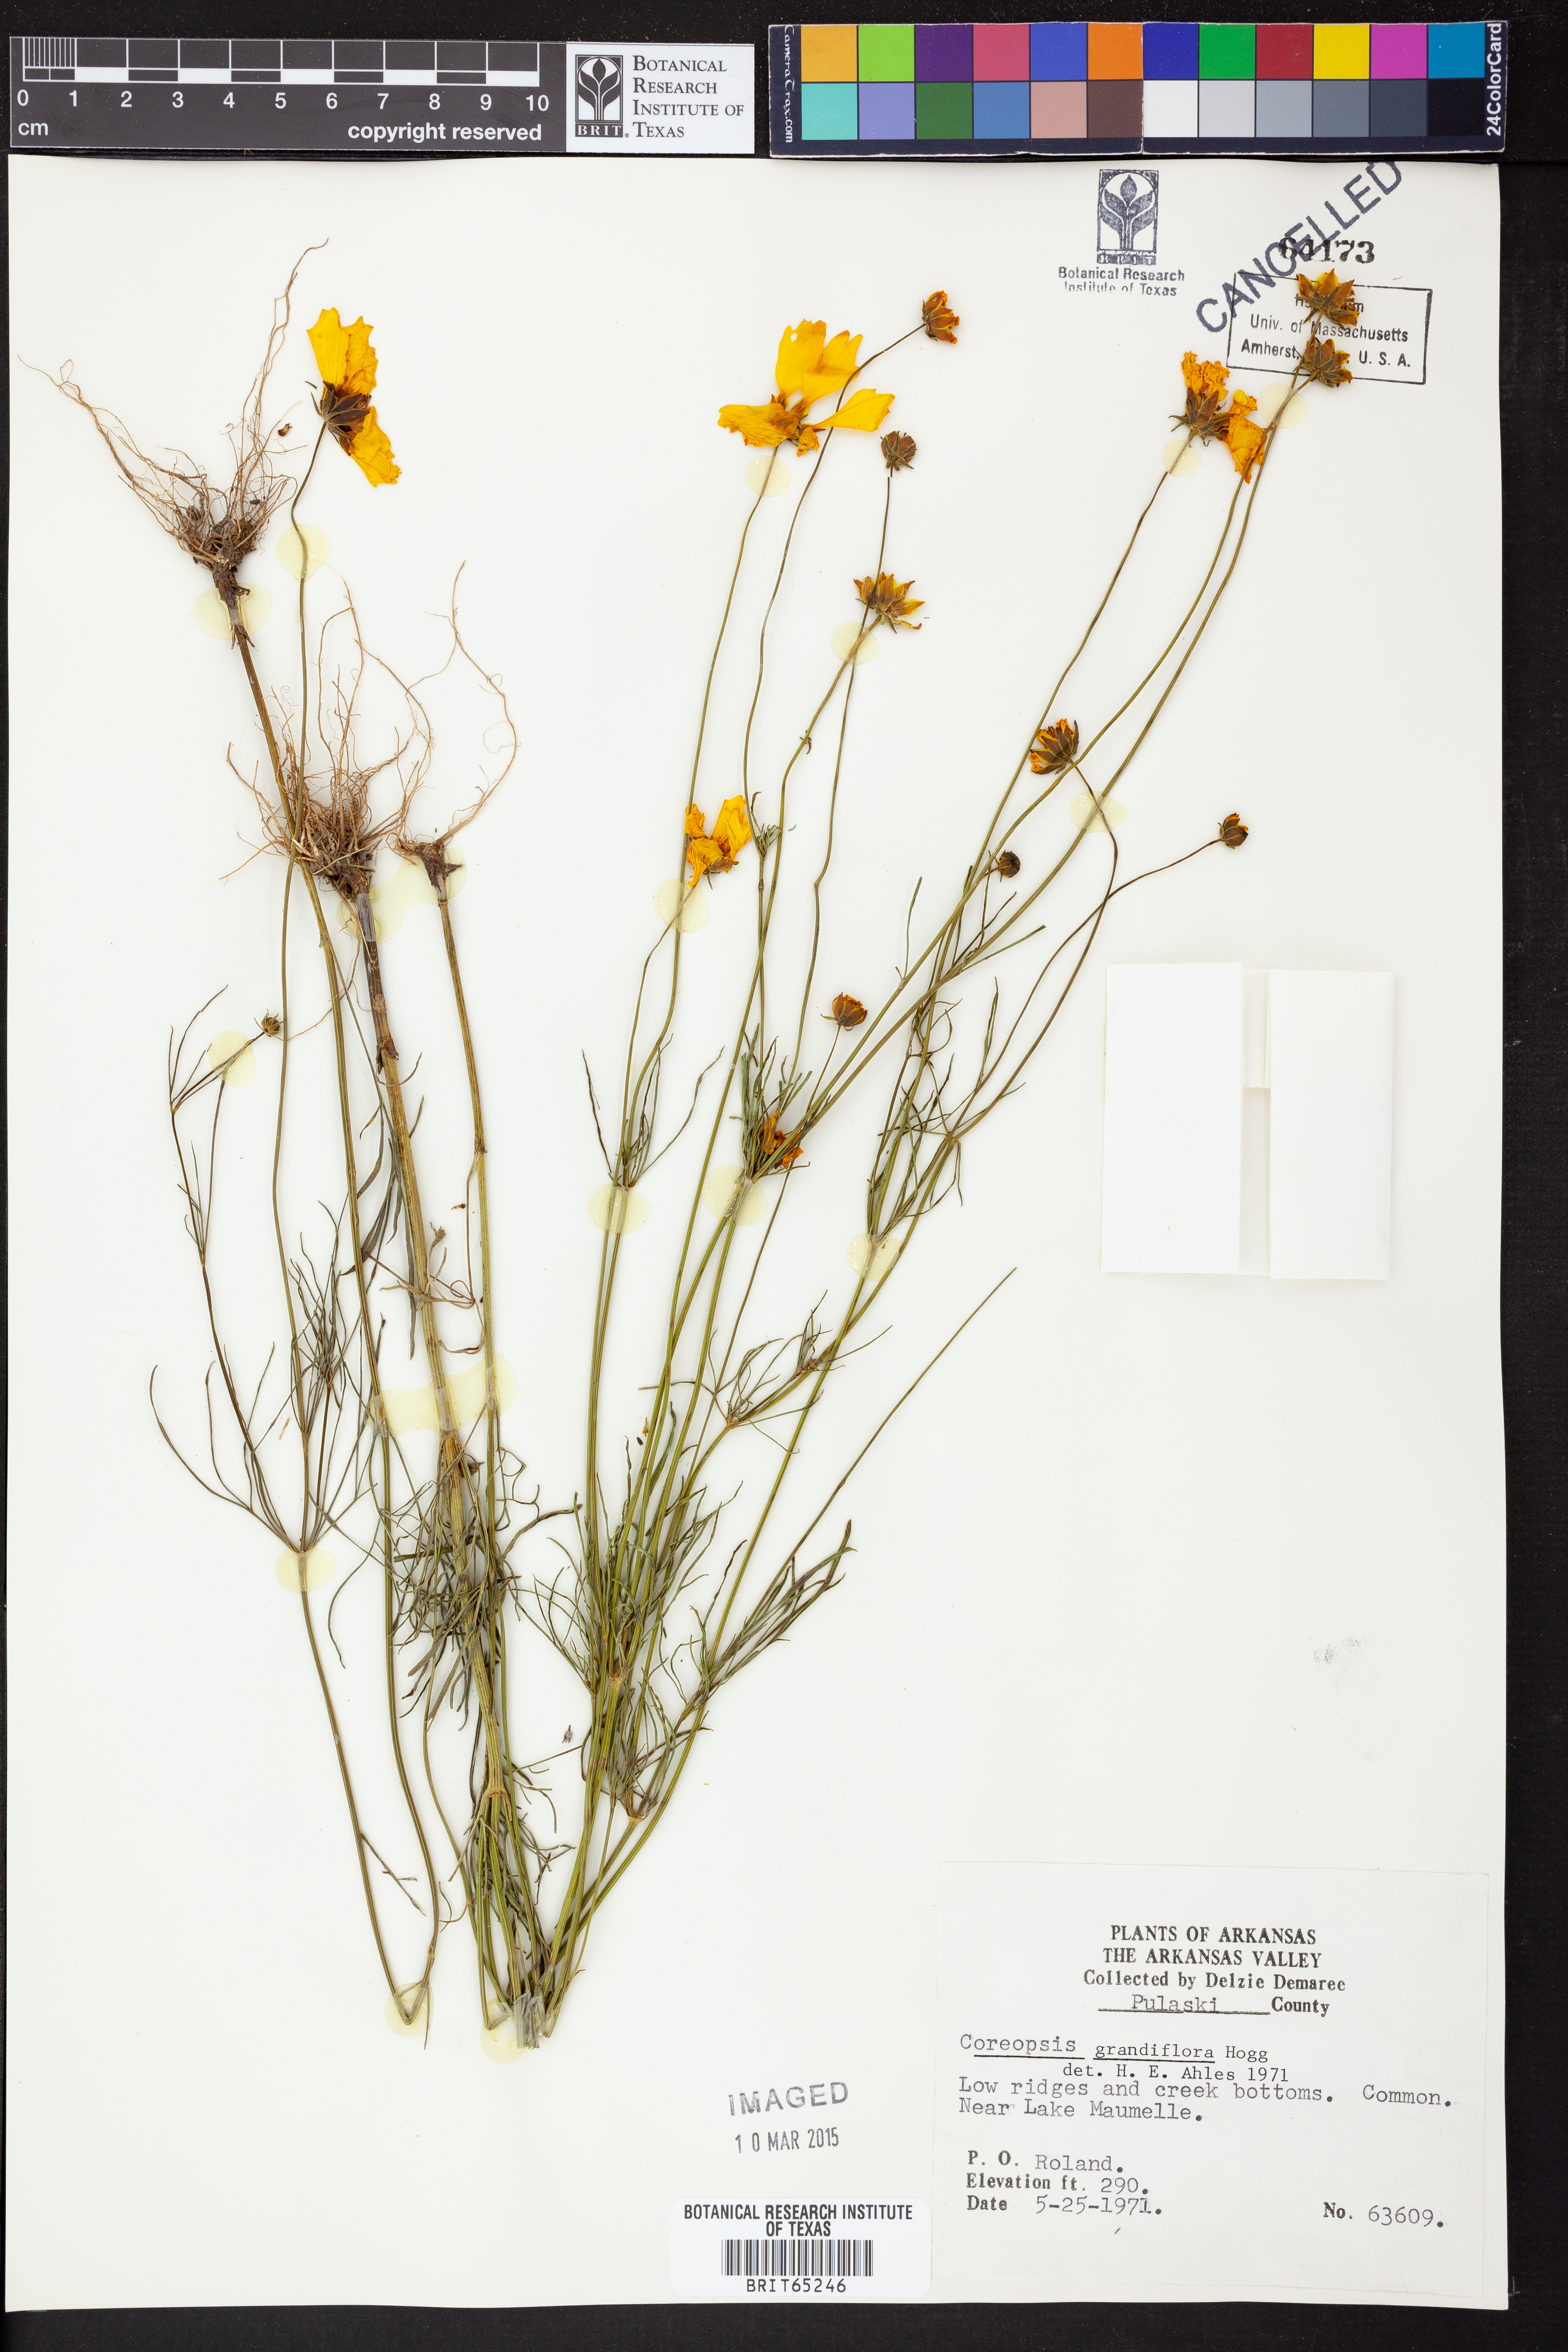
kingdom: Plantae
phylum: Tracheophyta
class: Magnoliopsida
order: Asterales
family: Asteraceae
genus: Coreopsis
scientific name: Coreopsis grandiflora
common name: Large-flowered tickseed
